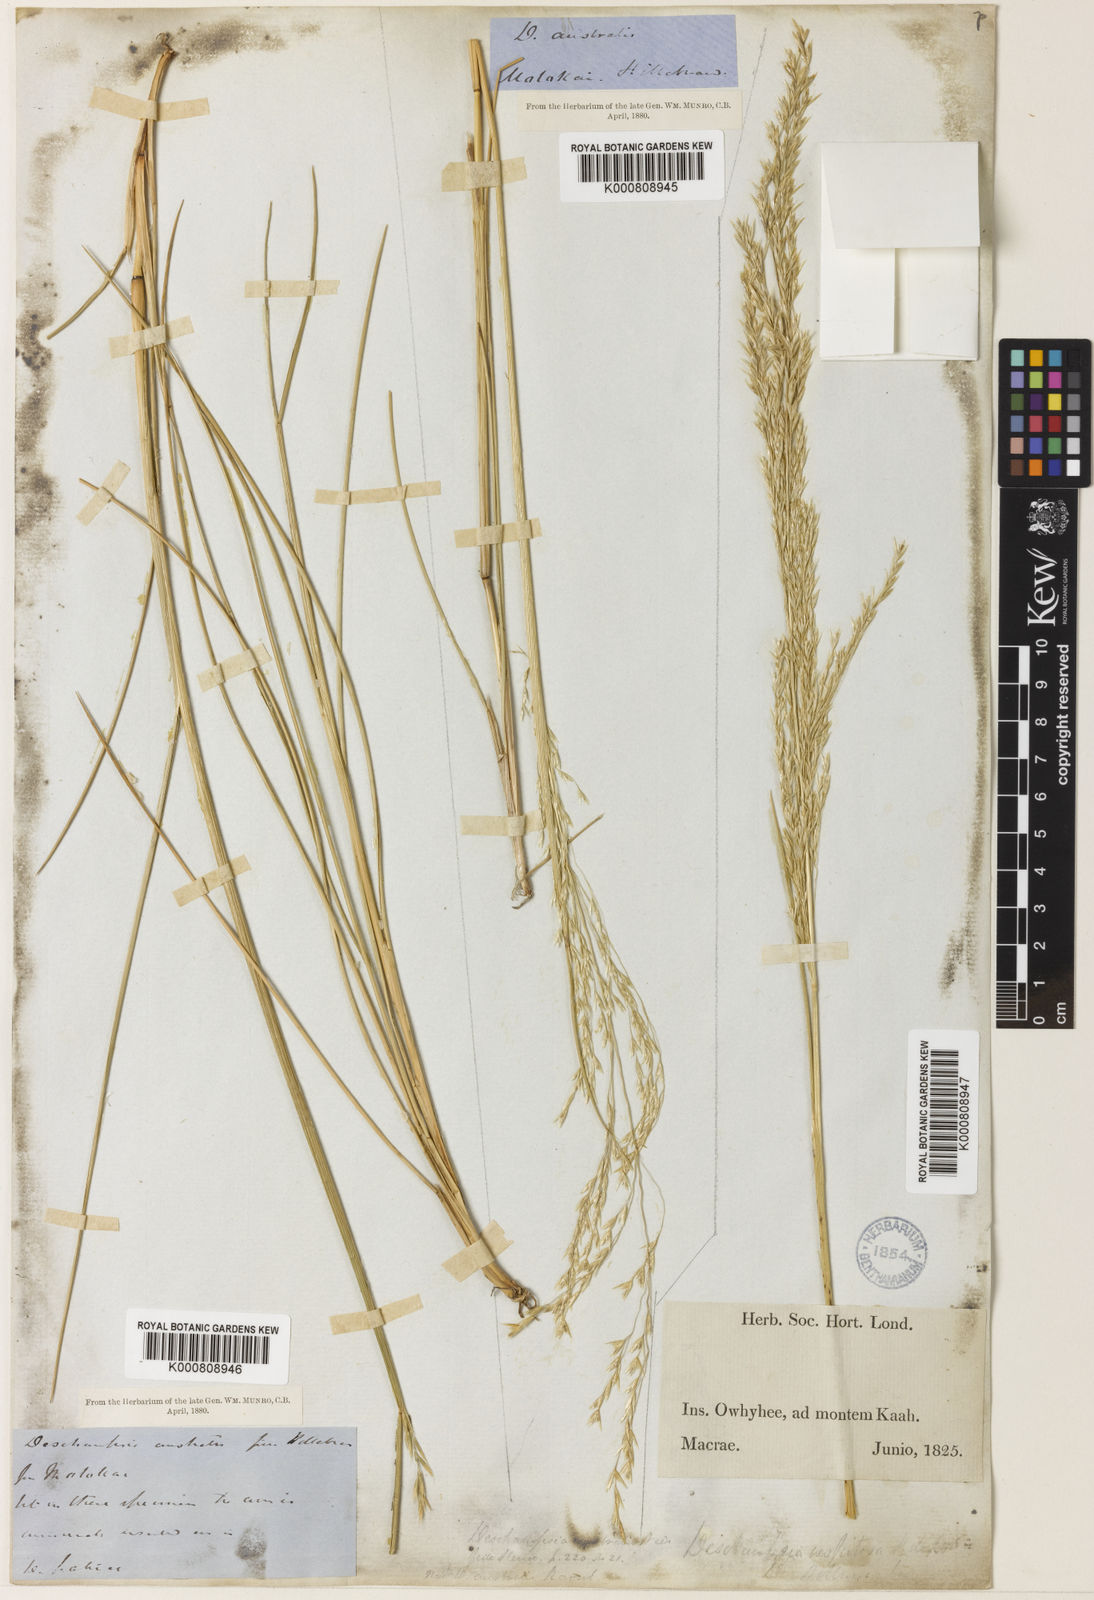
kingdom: Plantae
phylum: Tracheophyta
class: Liliopsida
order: Poales
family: Poaceae
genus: Deschampsia
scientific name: Deschampsia nubigena
